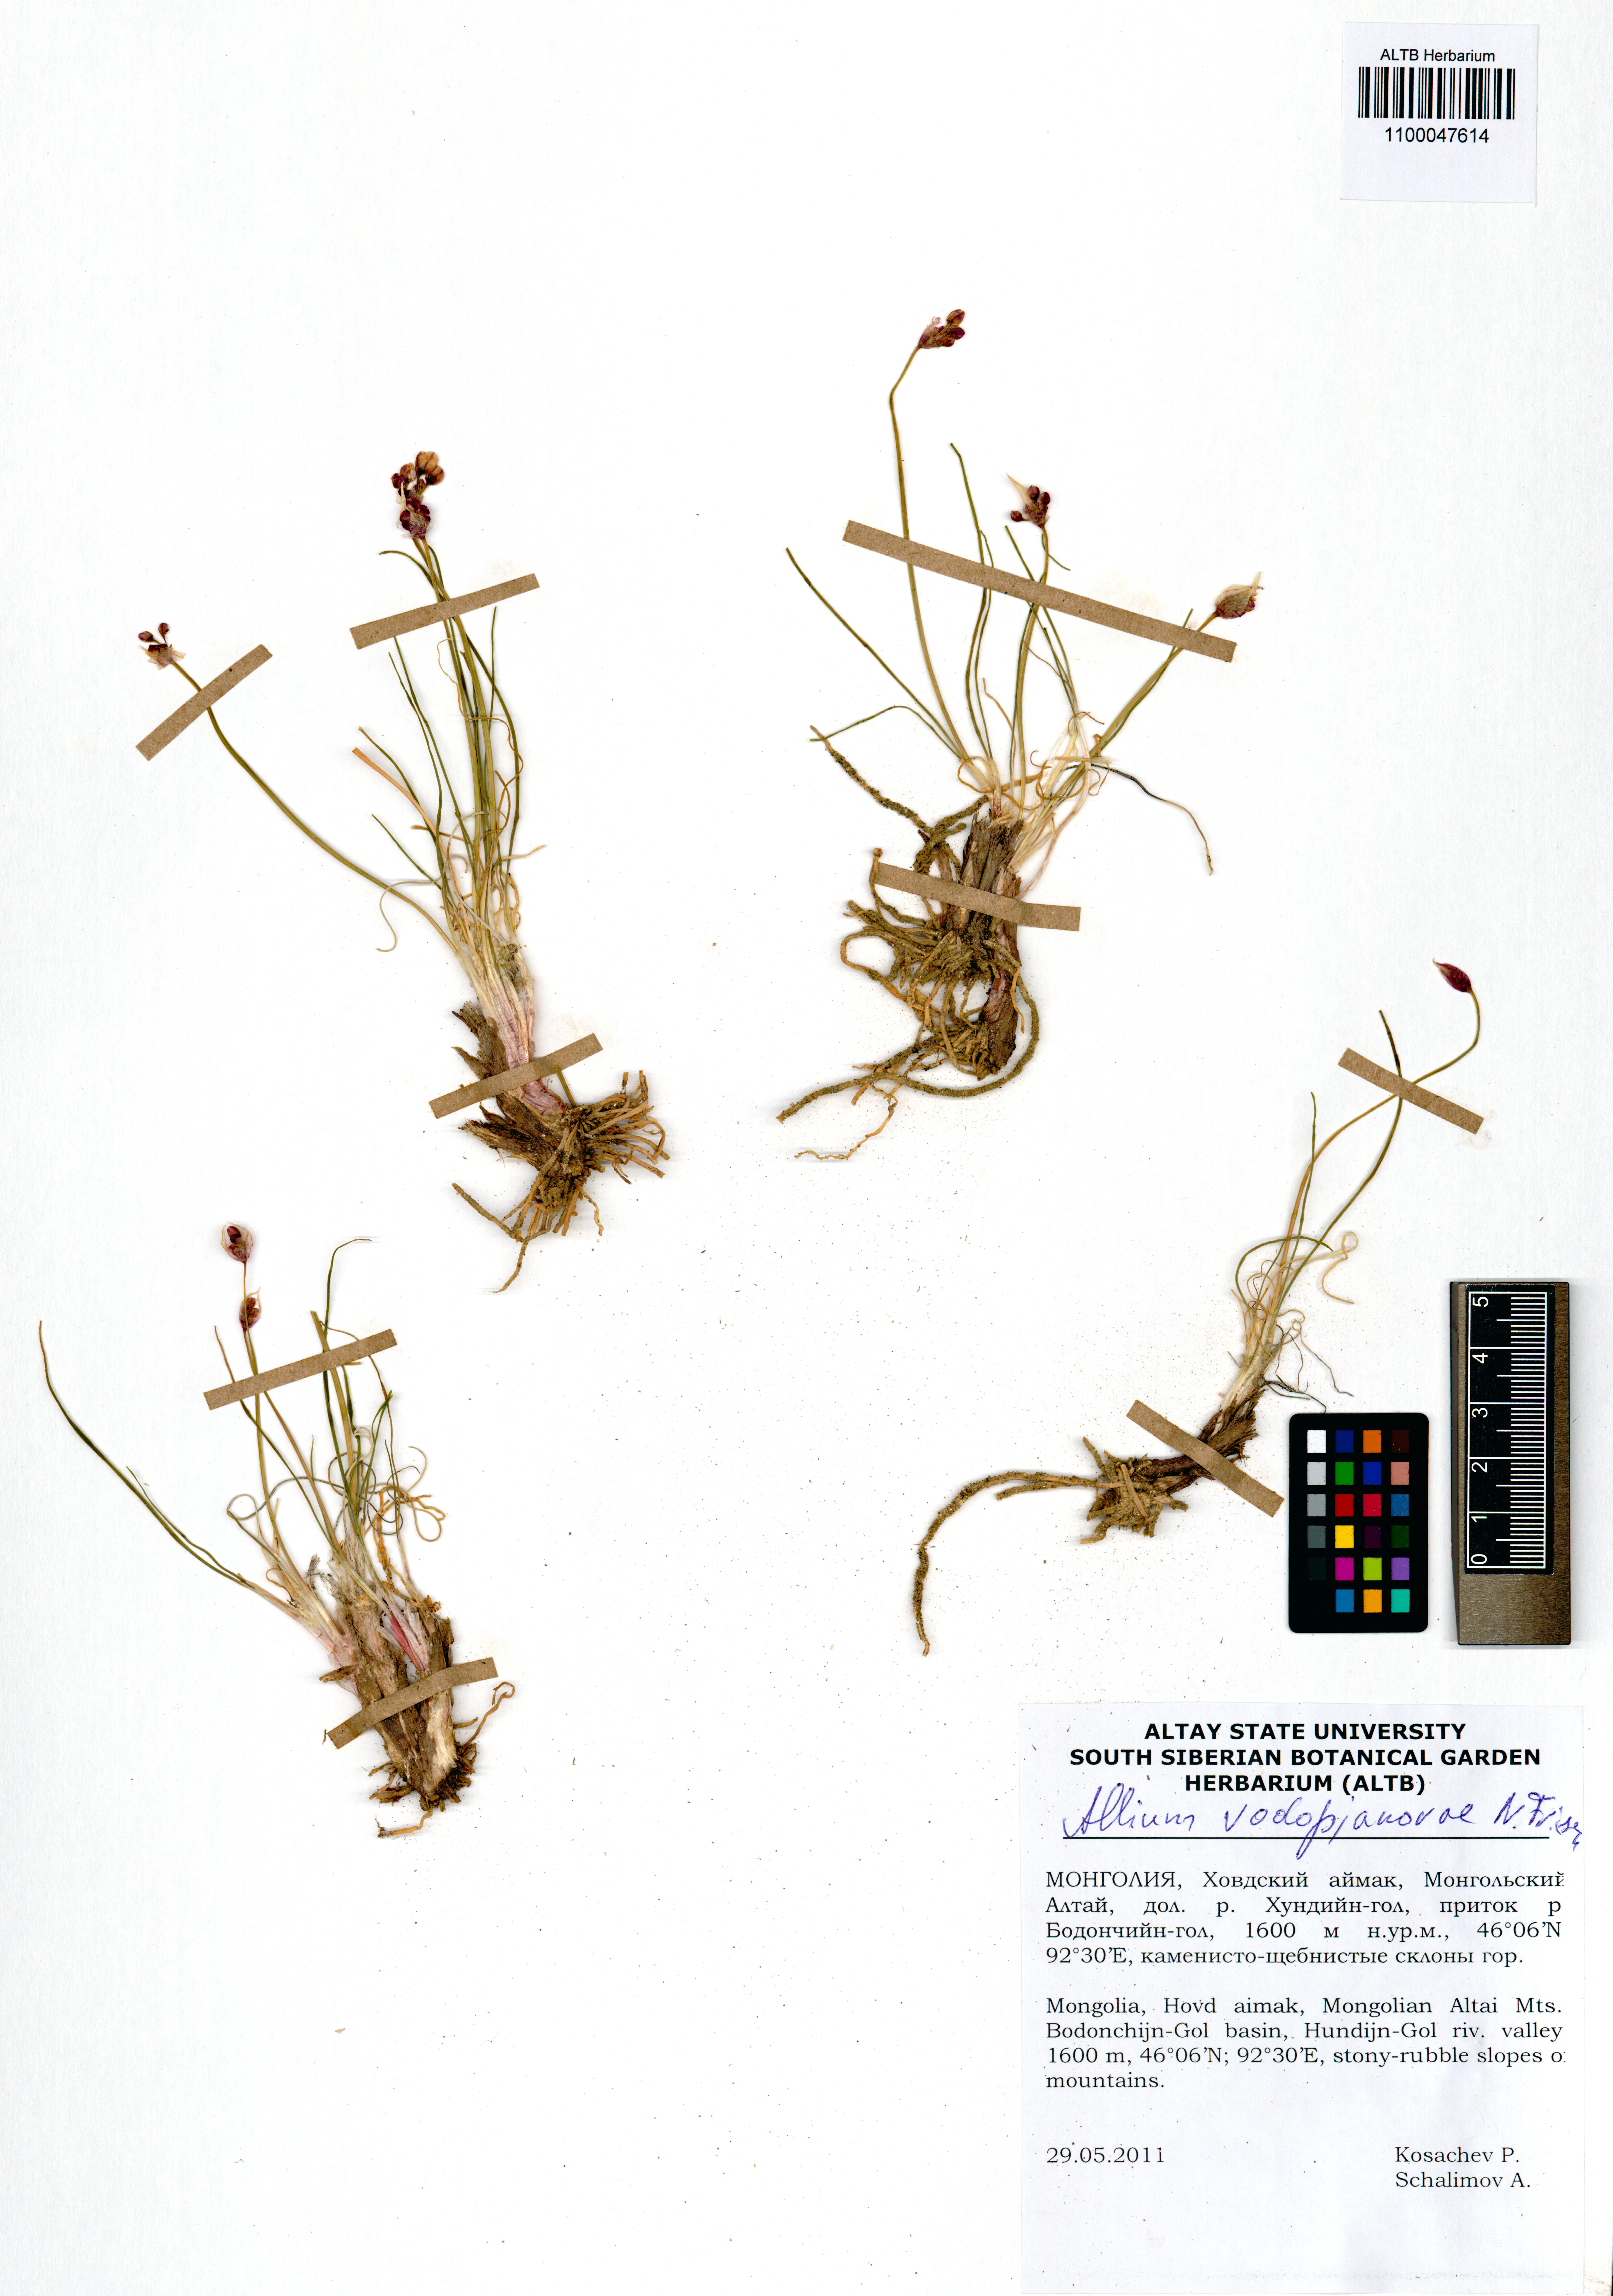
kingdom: Plantae
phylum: Tracheophyta
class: Liliopsida
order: Asparagales
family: Amaryllidaceae
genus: Allium
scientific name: Allium vodopjanovae
